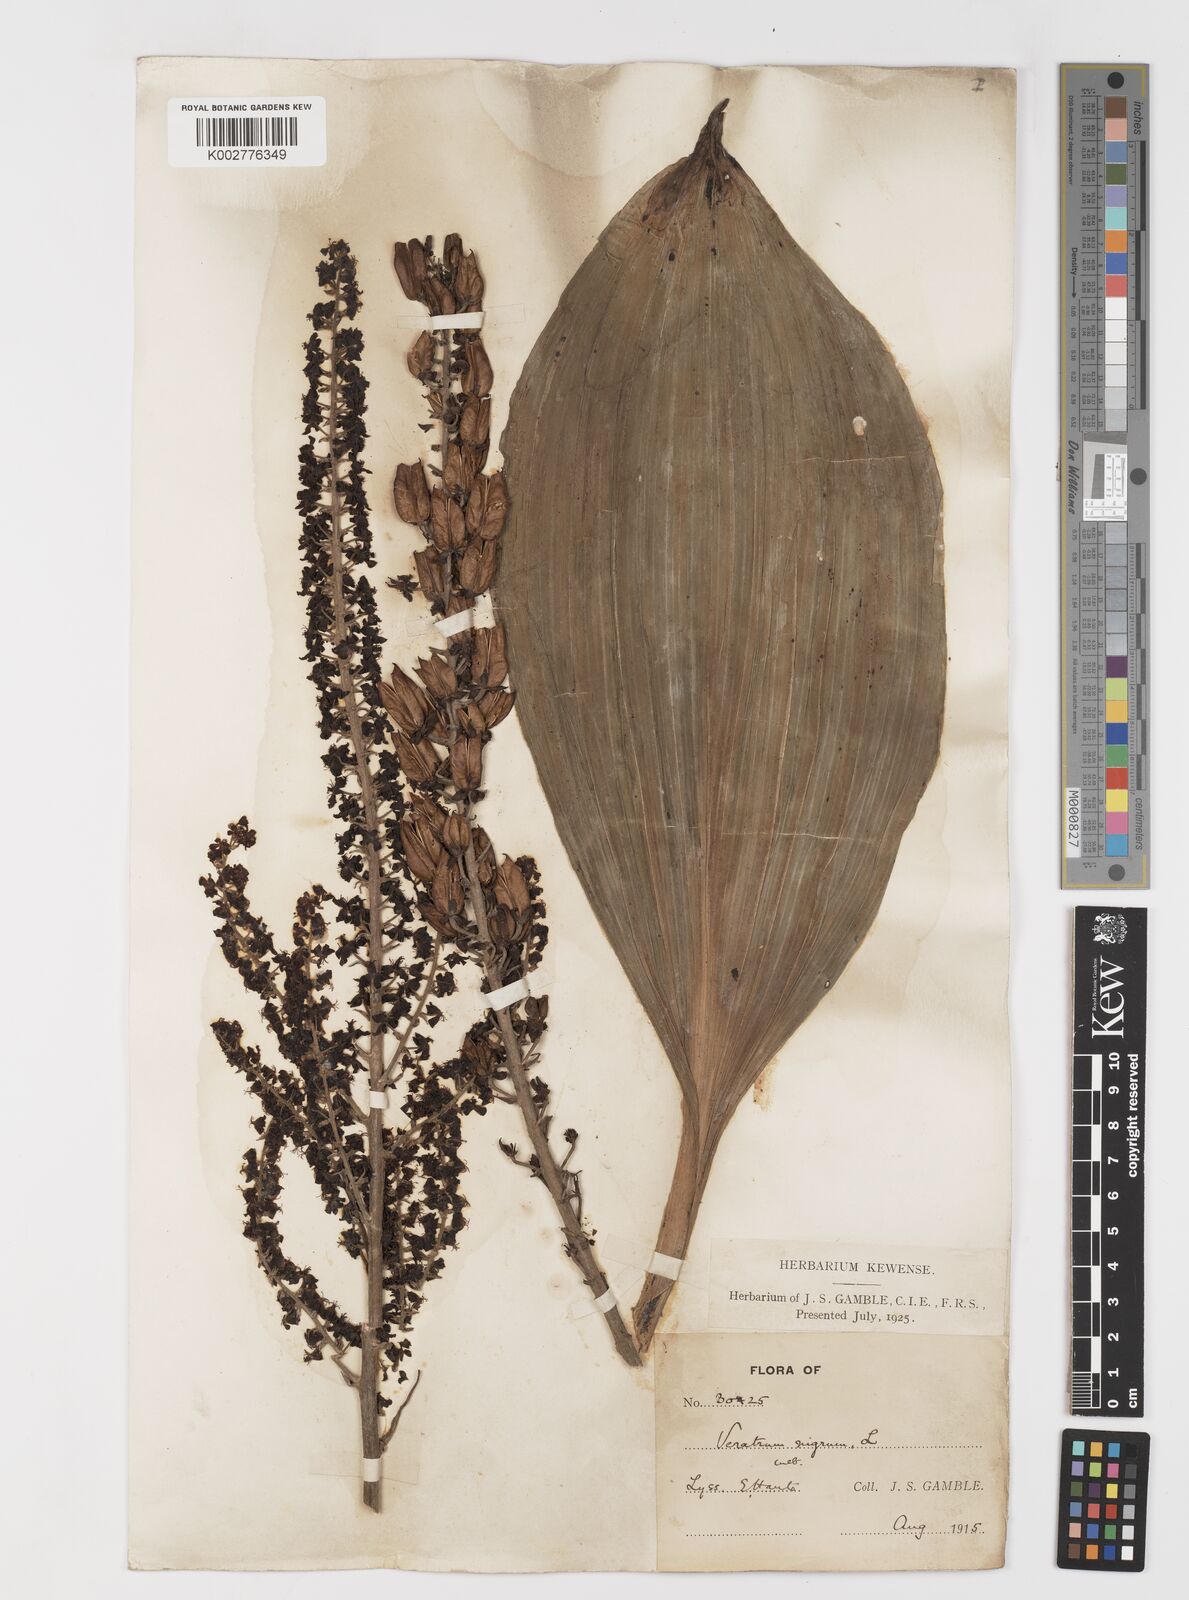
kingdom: Plantae
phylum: Tracheophyta
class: Liliopsida
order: Liliales
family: Melanthiaceae
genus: Veratrum
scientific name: Veratrum nigrum
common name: Black veratrum
